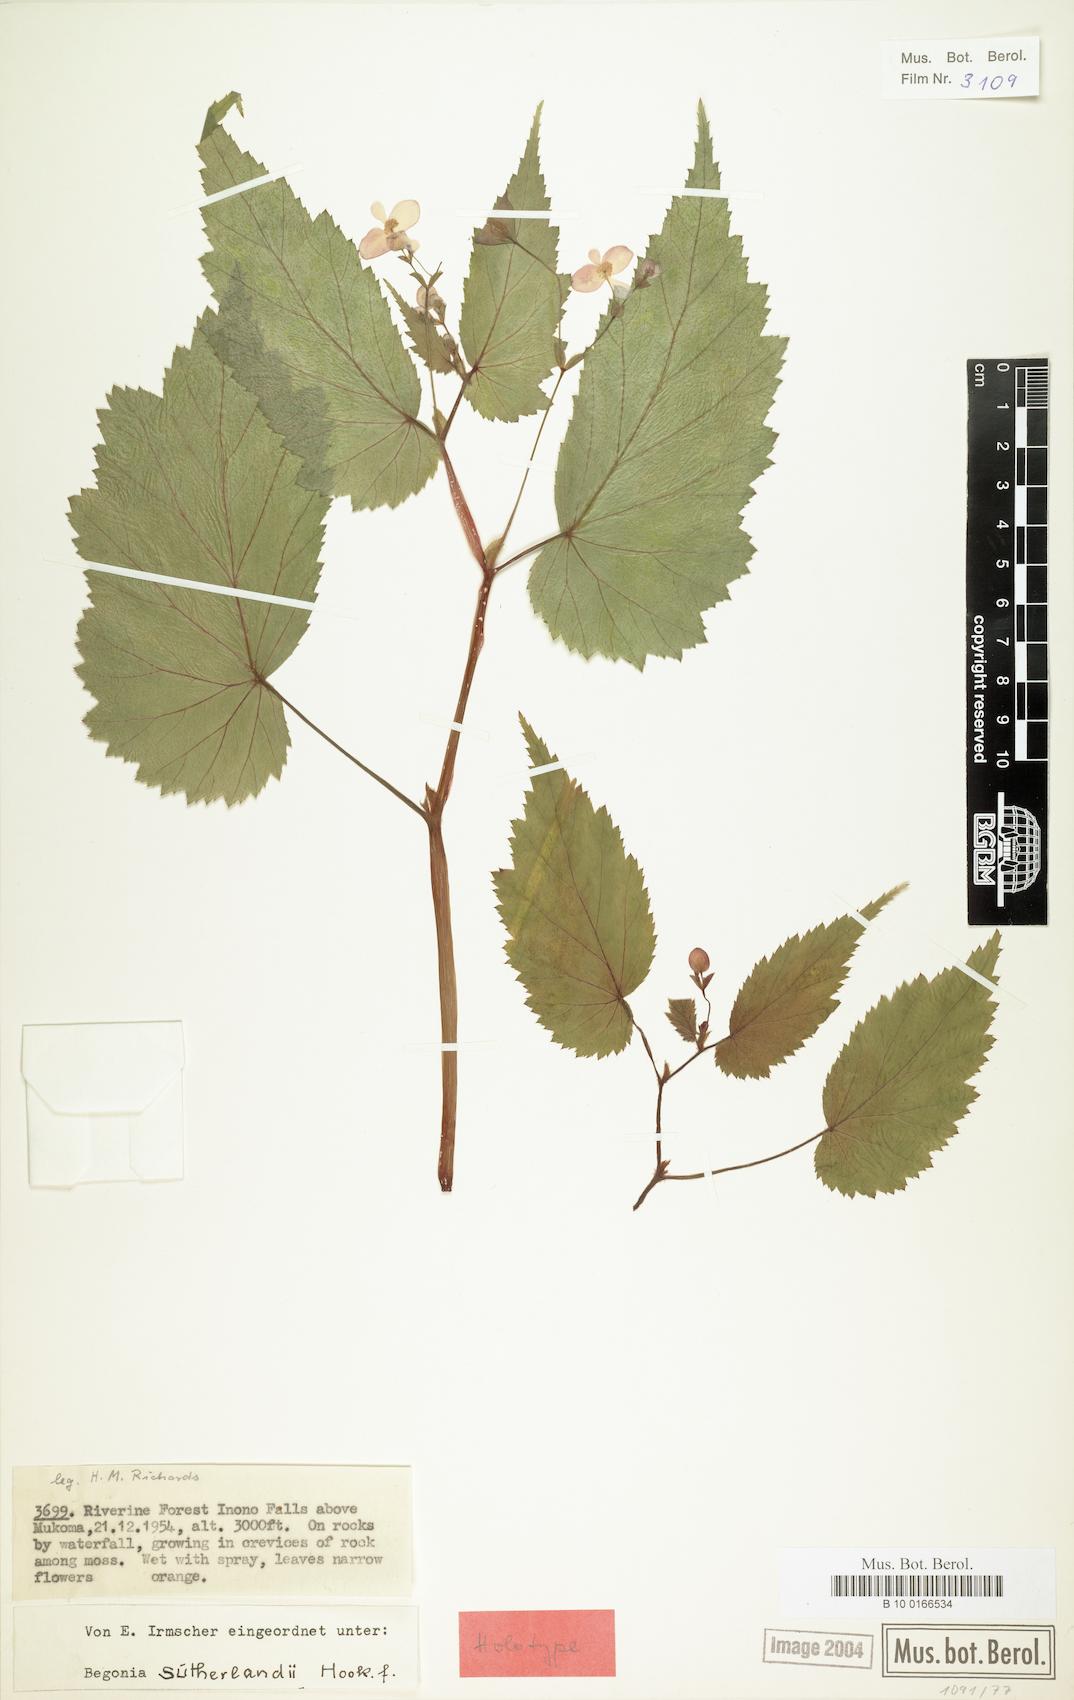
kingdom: Plantae
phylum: Tracheophyta
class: Magnoliopsida
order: Cucurbitales
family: Begoniaceae
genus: Begonia
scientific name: Begonia sutherlandii
